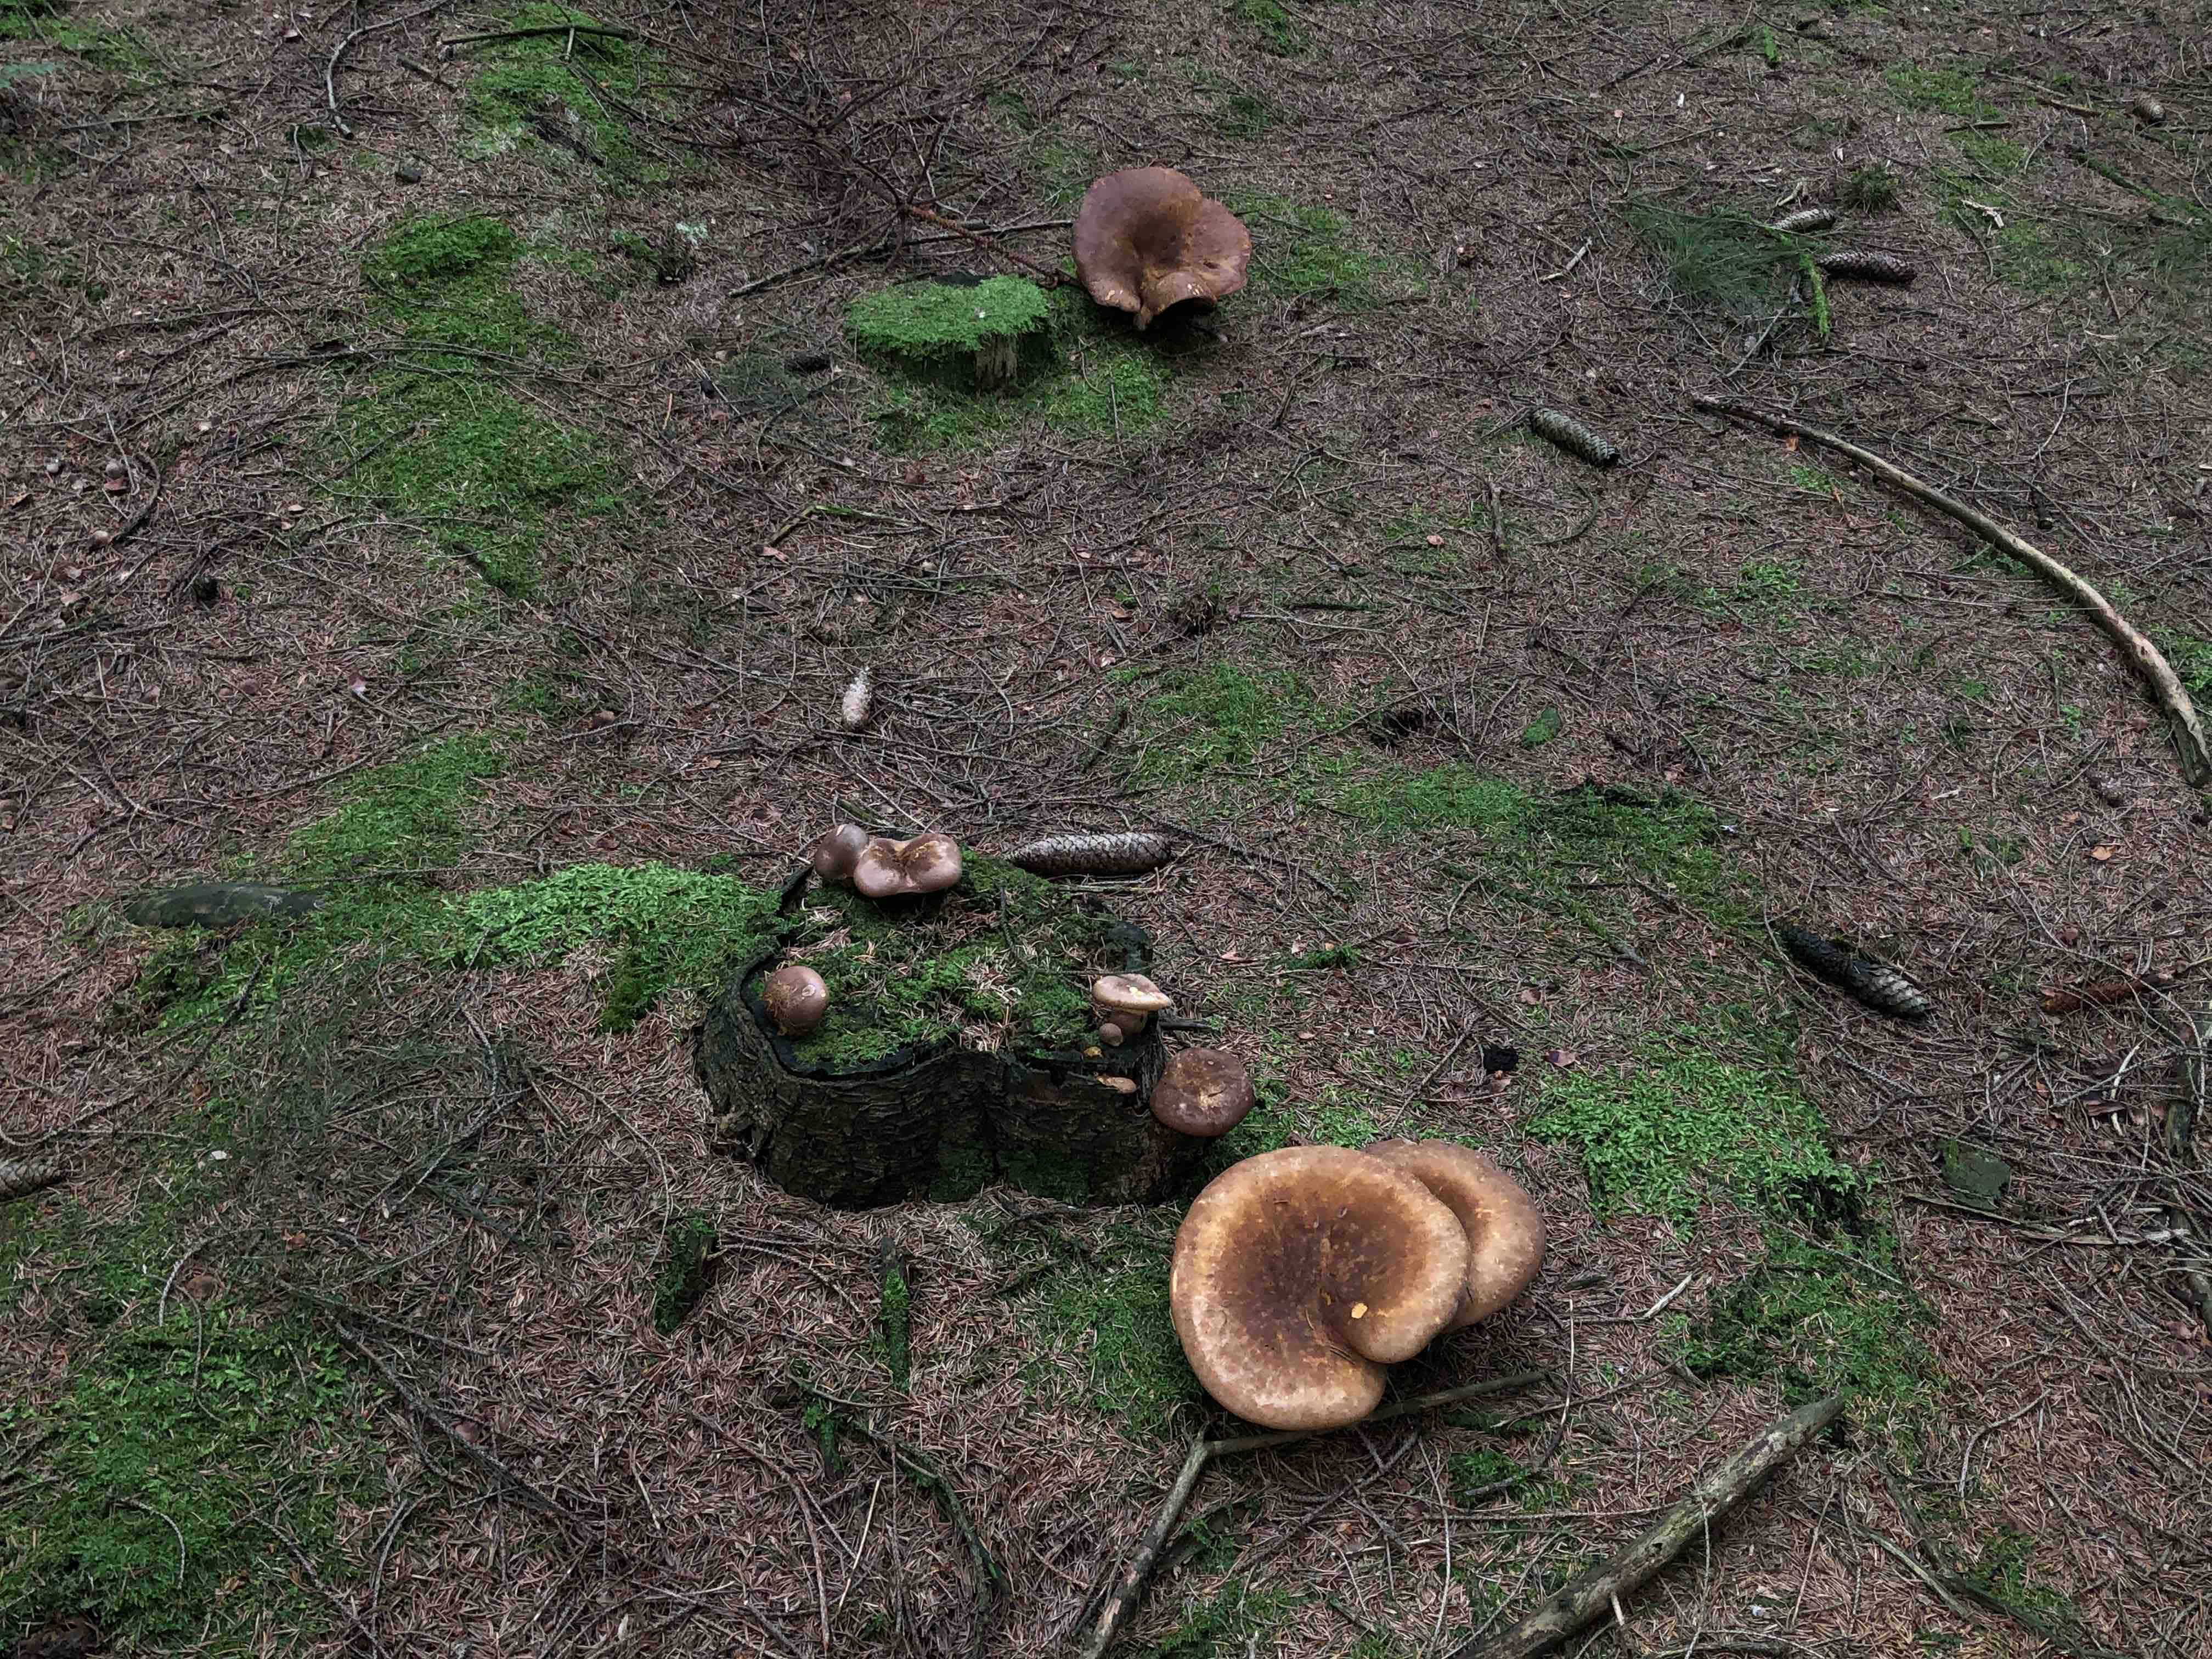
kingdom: Fungi
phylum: Basidiomycota
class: Agaricomycetes
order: Boletales
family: Tapinellaceae
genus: Tapinella
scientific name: Tapinella atrotomentosa
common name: sortfiltet viftesvamp
